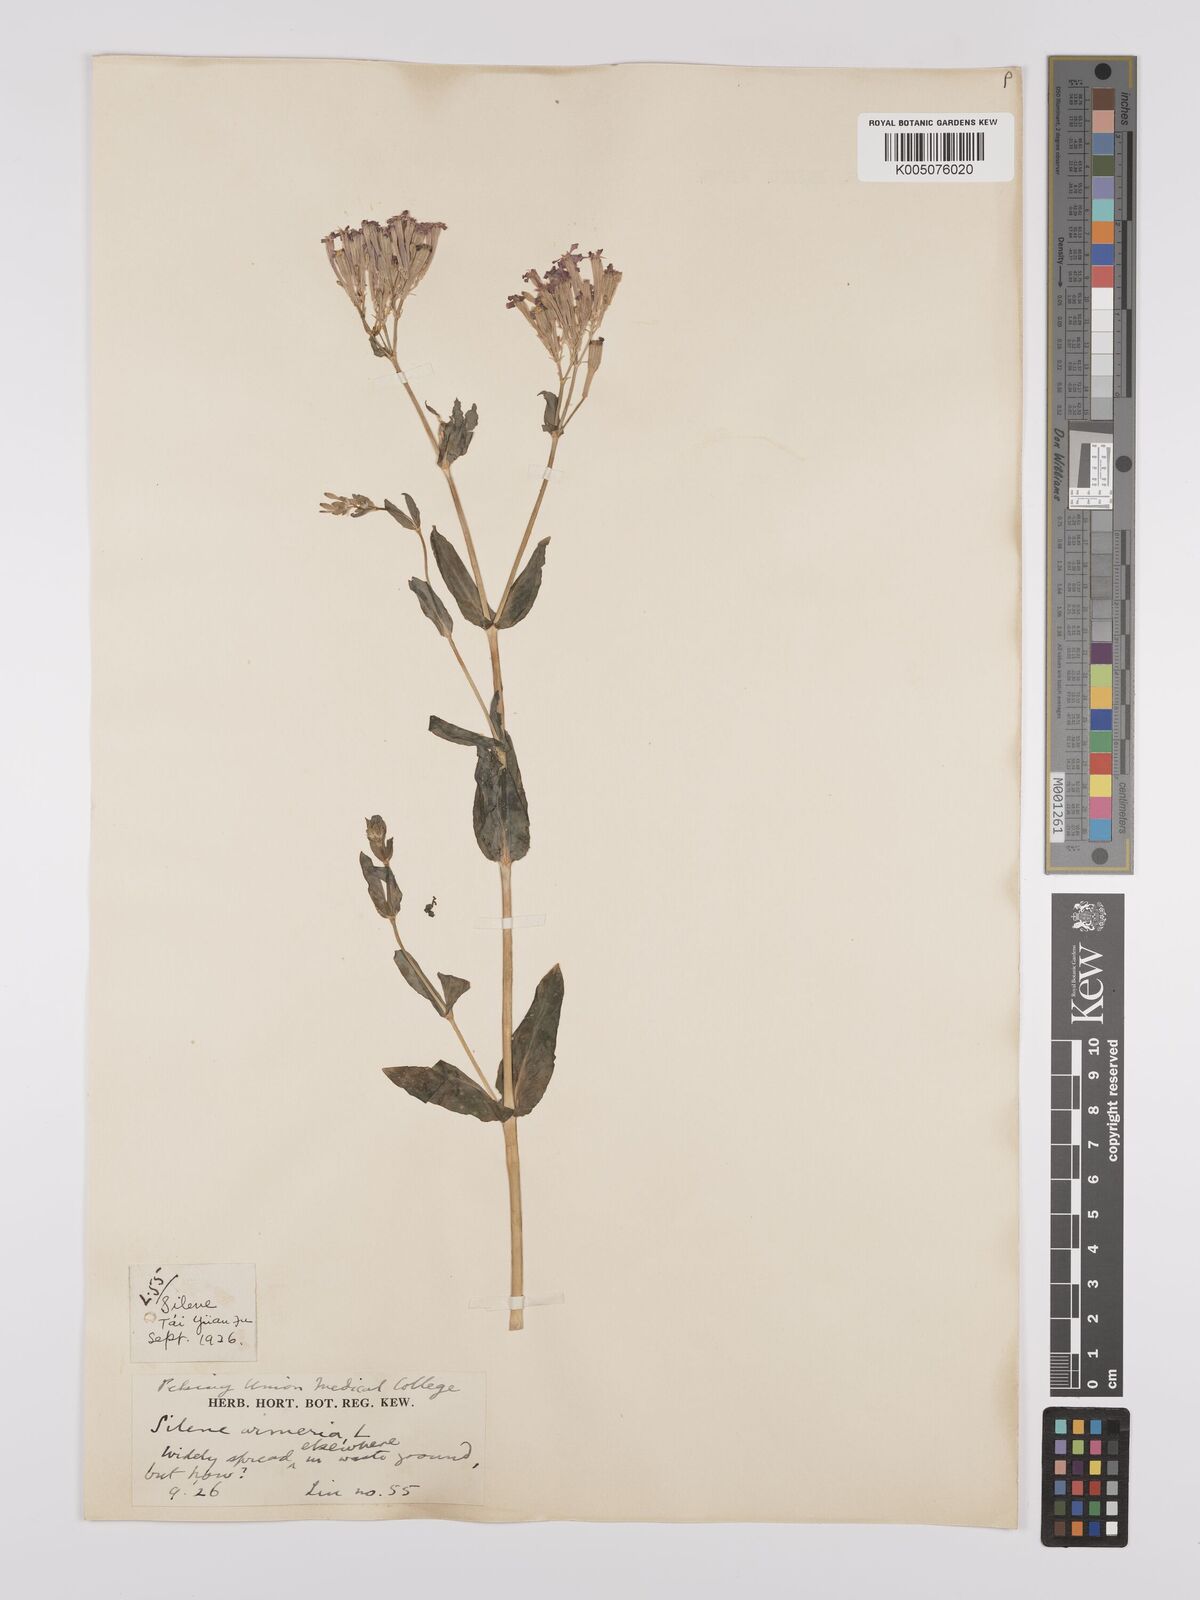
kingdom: Plantae
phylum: Tracheophyta
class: Magnoliopsida
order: Caryophyllales
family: Caryophyllaceae
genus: Silene
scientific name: Silene
